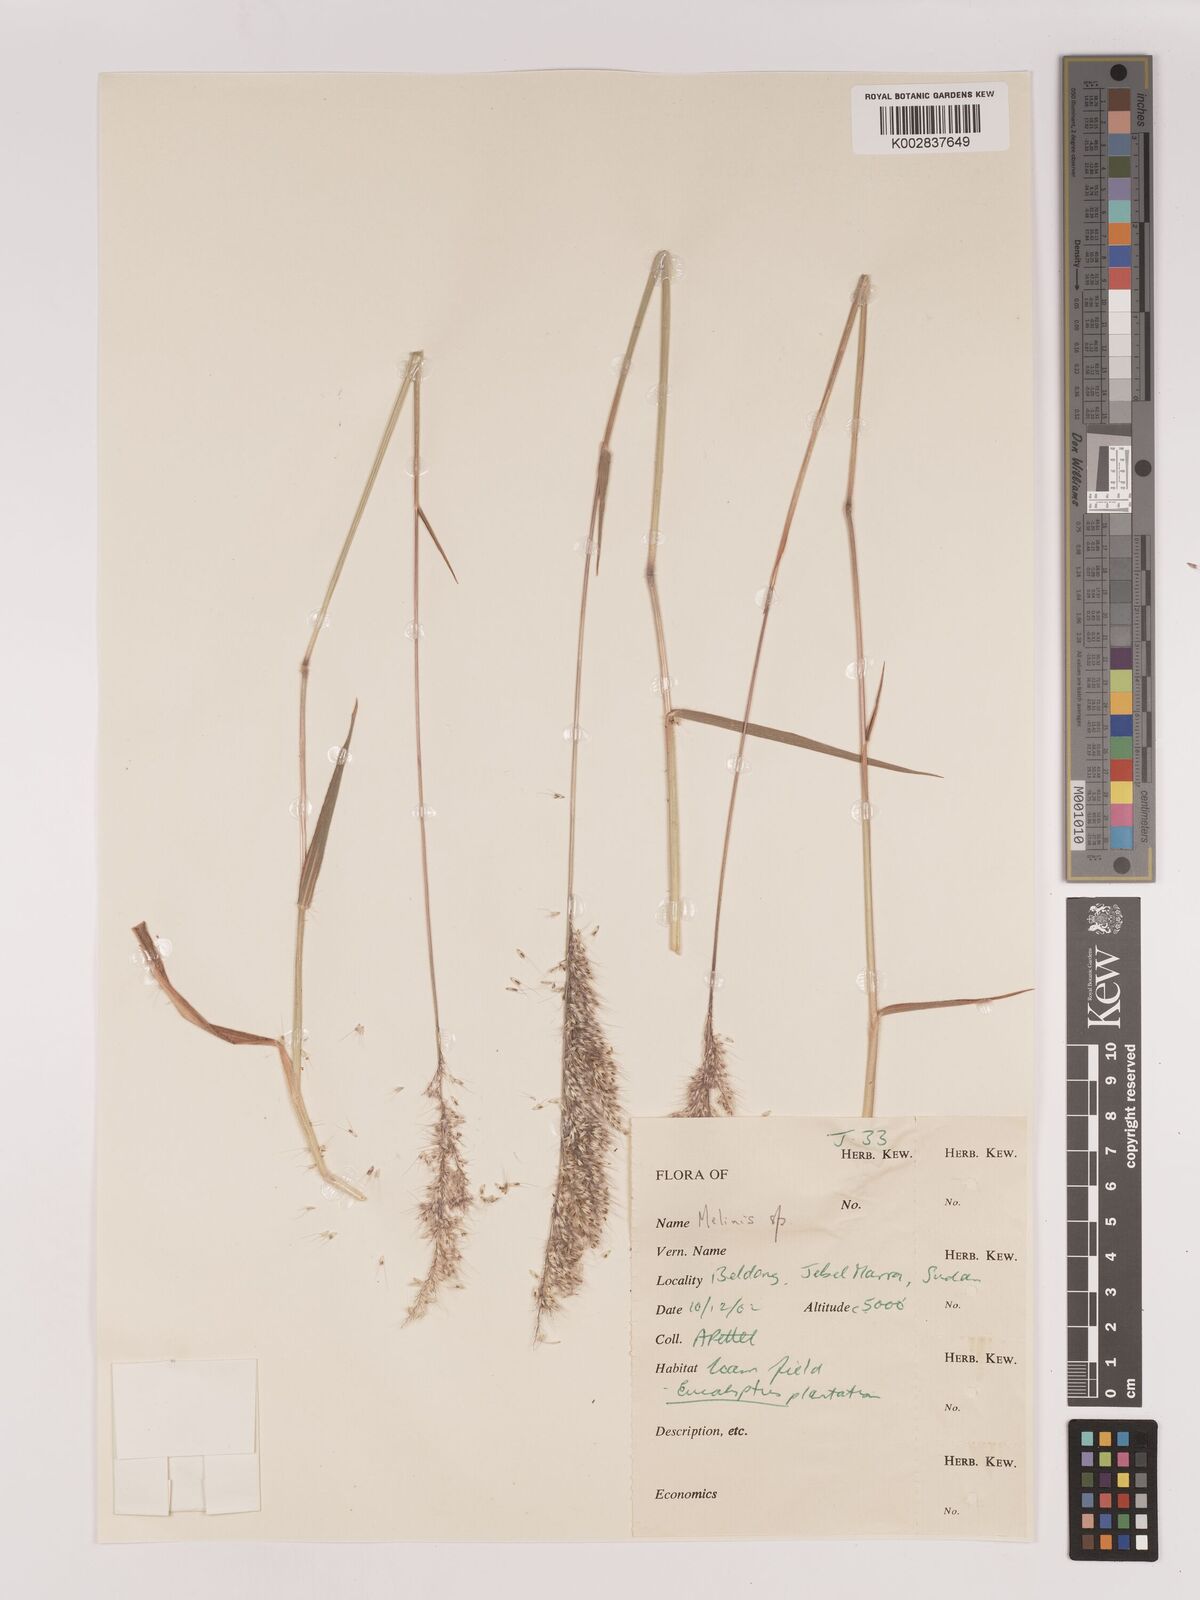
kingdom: Plantae
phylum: Tracheophyta
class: Liliopsida
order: Poales
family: Poaceae
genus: Melinis
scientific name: Melinis longiseta
